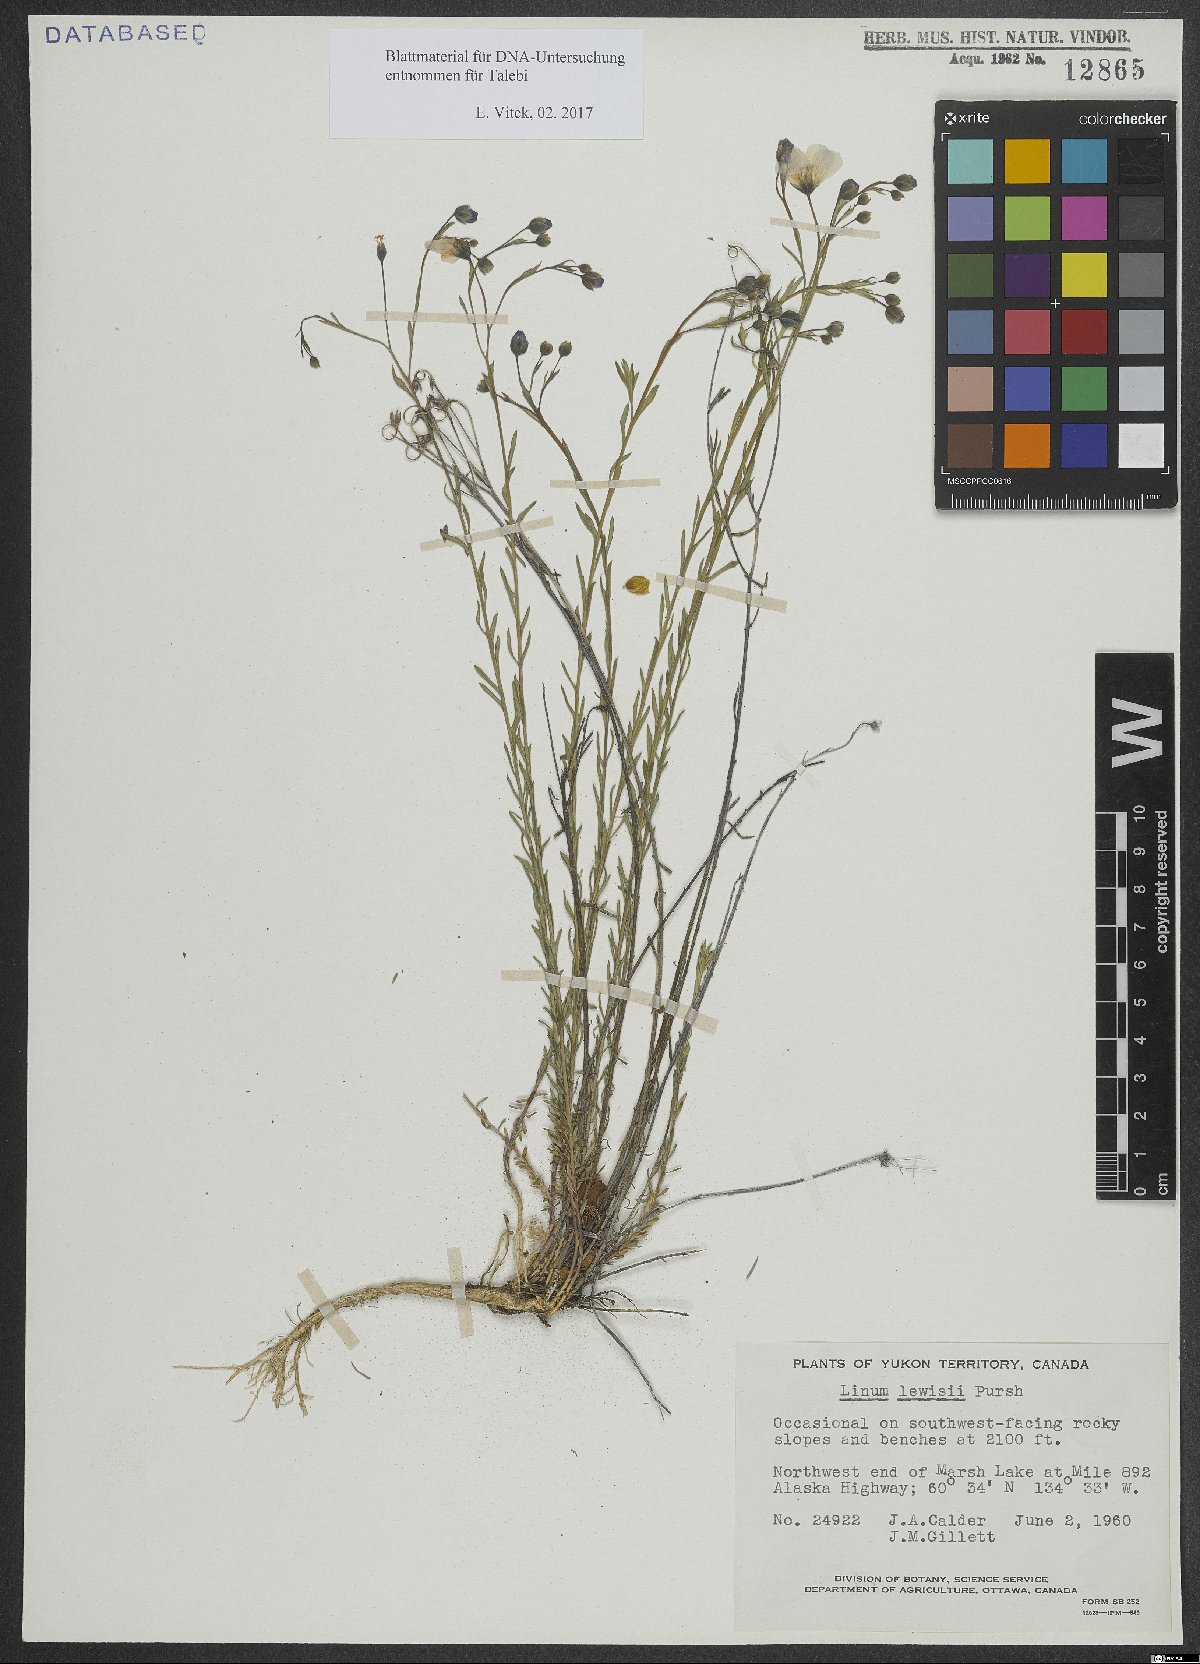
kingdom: Plantae
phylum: Tracheophyta
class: Magnoliopsida
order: Malpighiales
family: Linaceae
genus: Linum
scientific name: Linum lewisii
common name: Prairie flax
